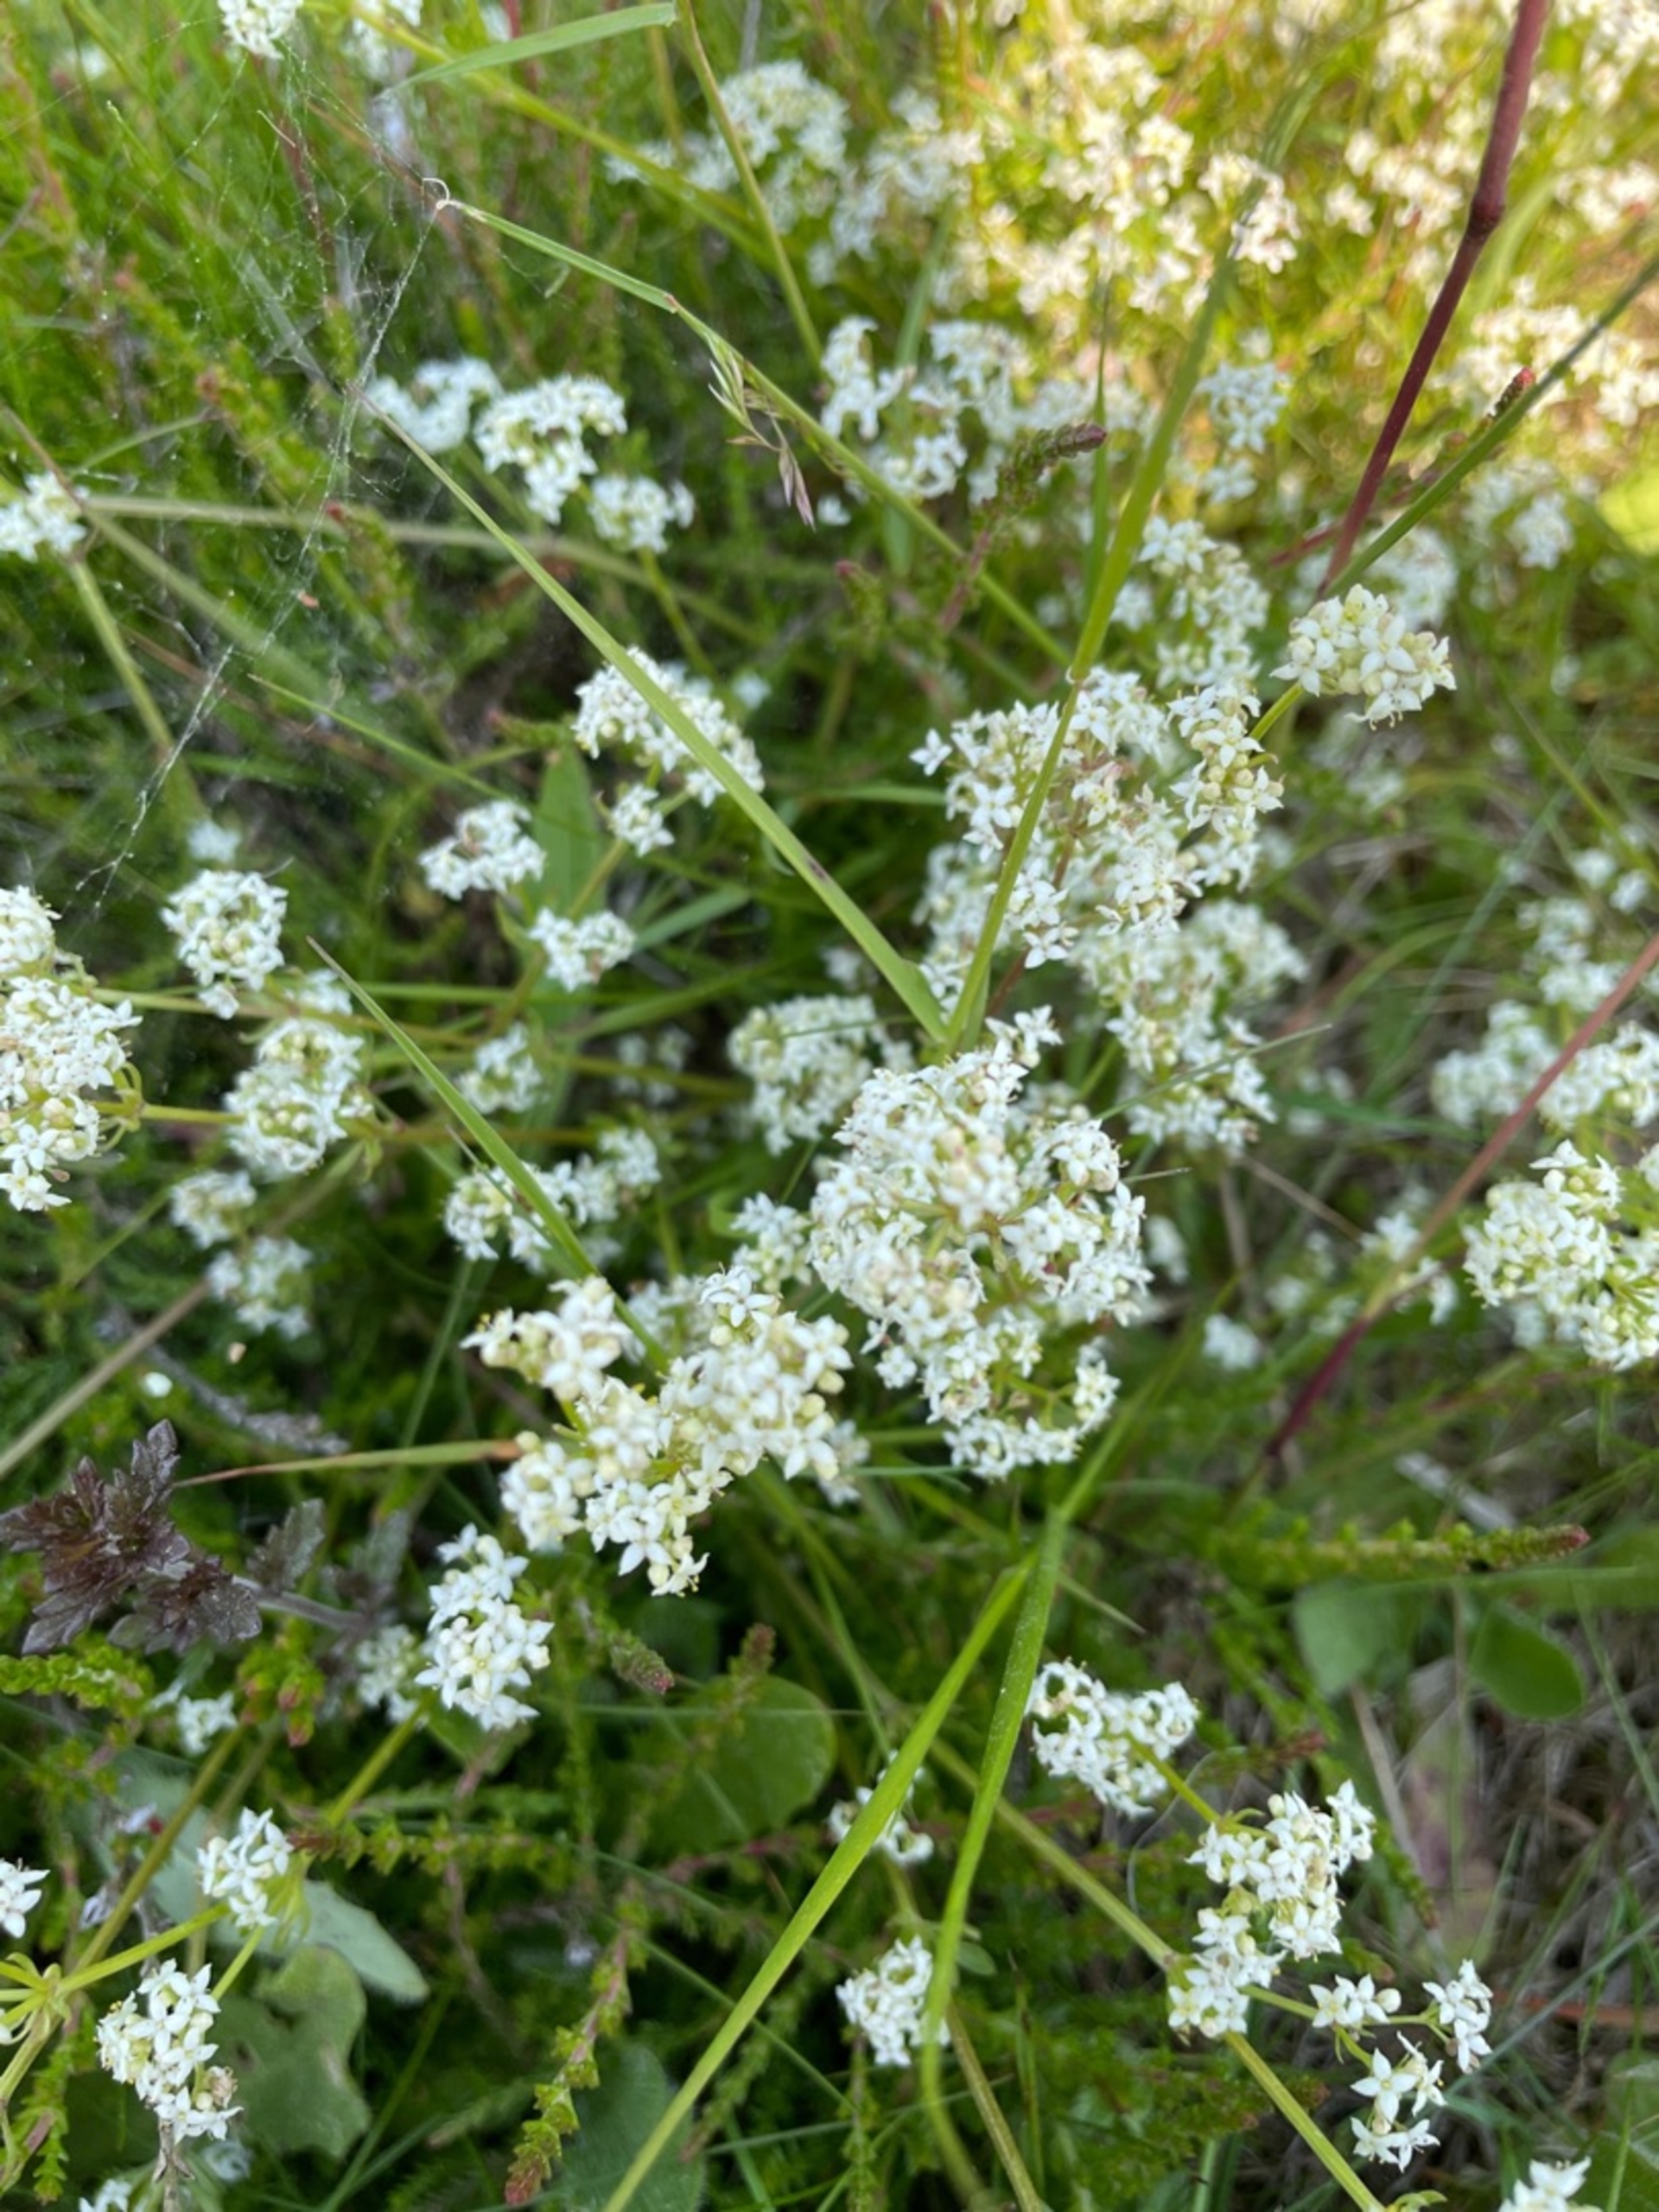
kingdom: Plantae
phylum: Tracheophyta
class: Magnoliopsida
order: Gentianales
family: Rubiaceae
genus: Galium
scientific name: Galium
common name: Snerreslægten
